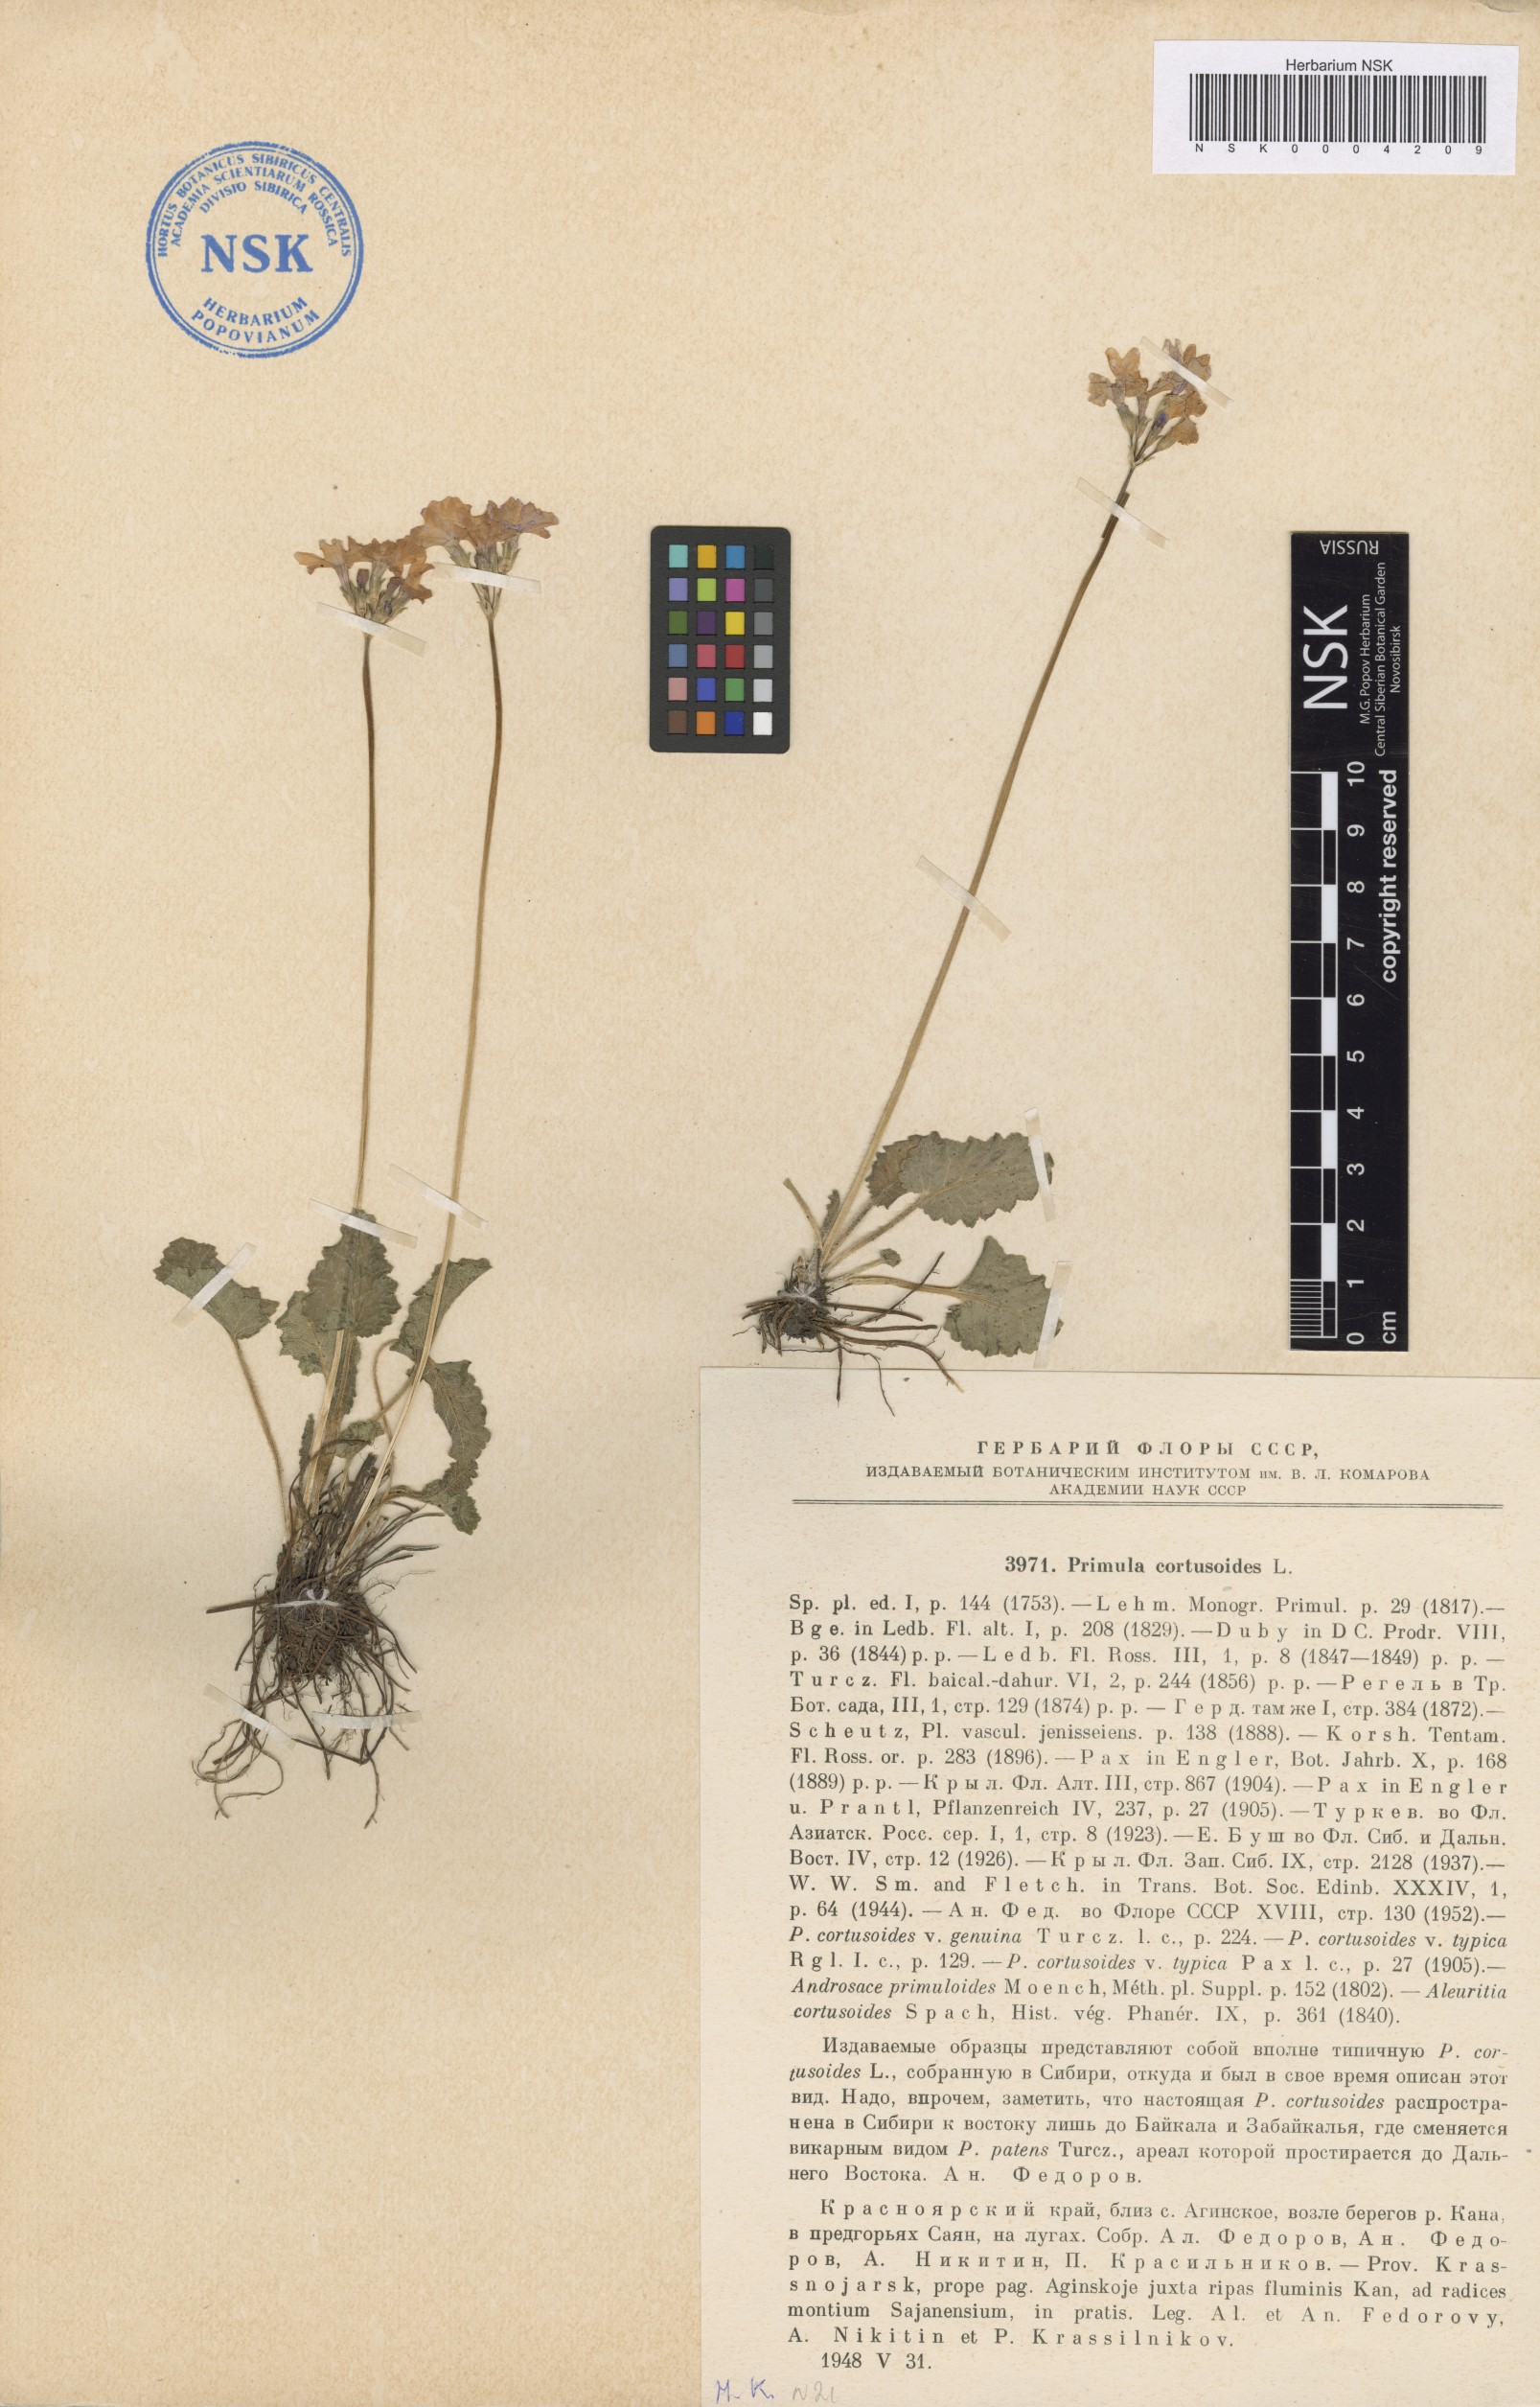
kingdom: Plantae
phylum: Tracheophyta
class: Magnoliopsida
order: Ericales
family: Primulaceae
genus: Primula
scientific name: Primula cortusoides
